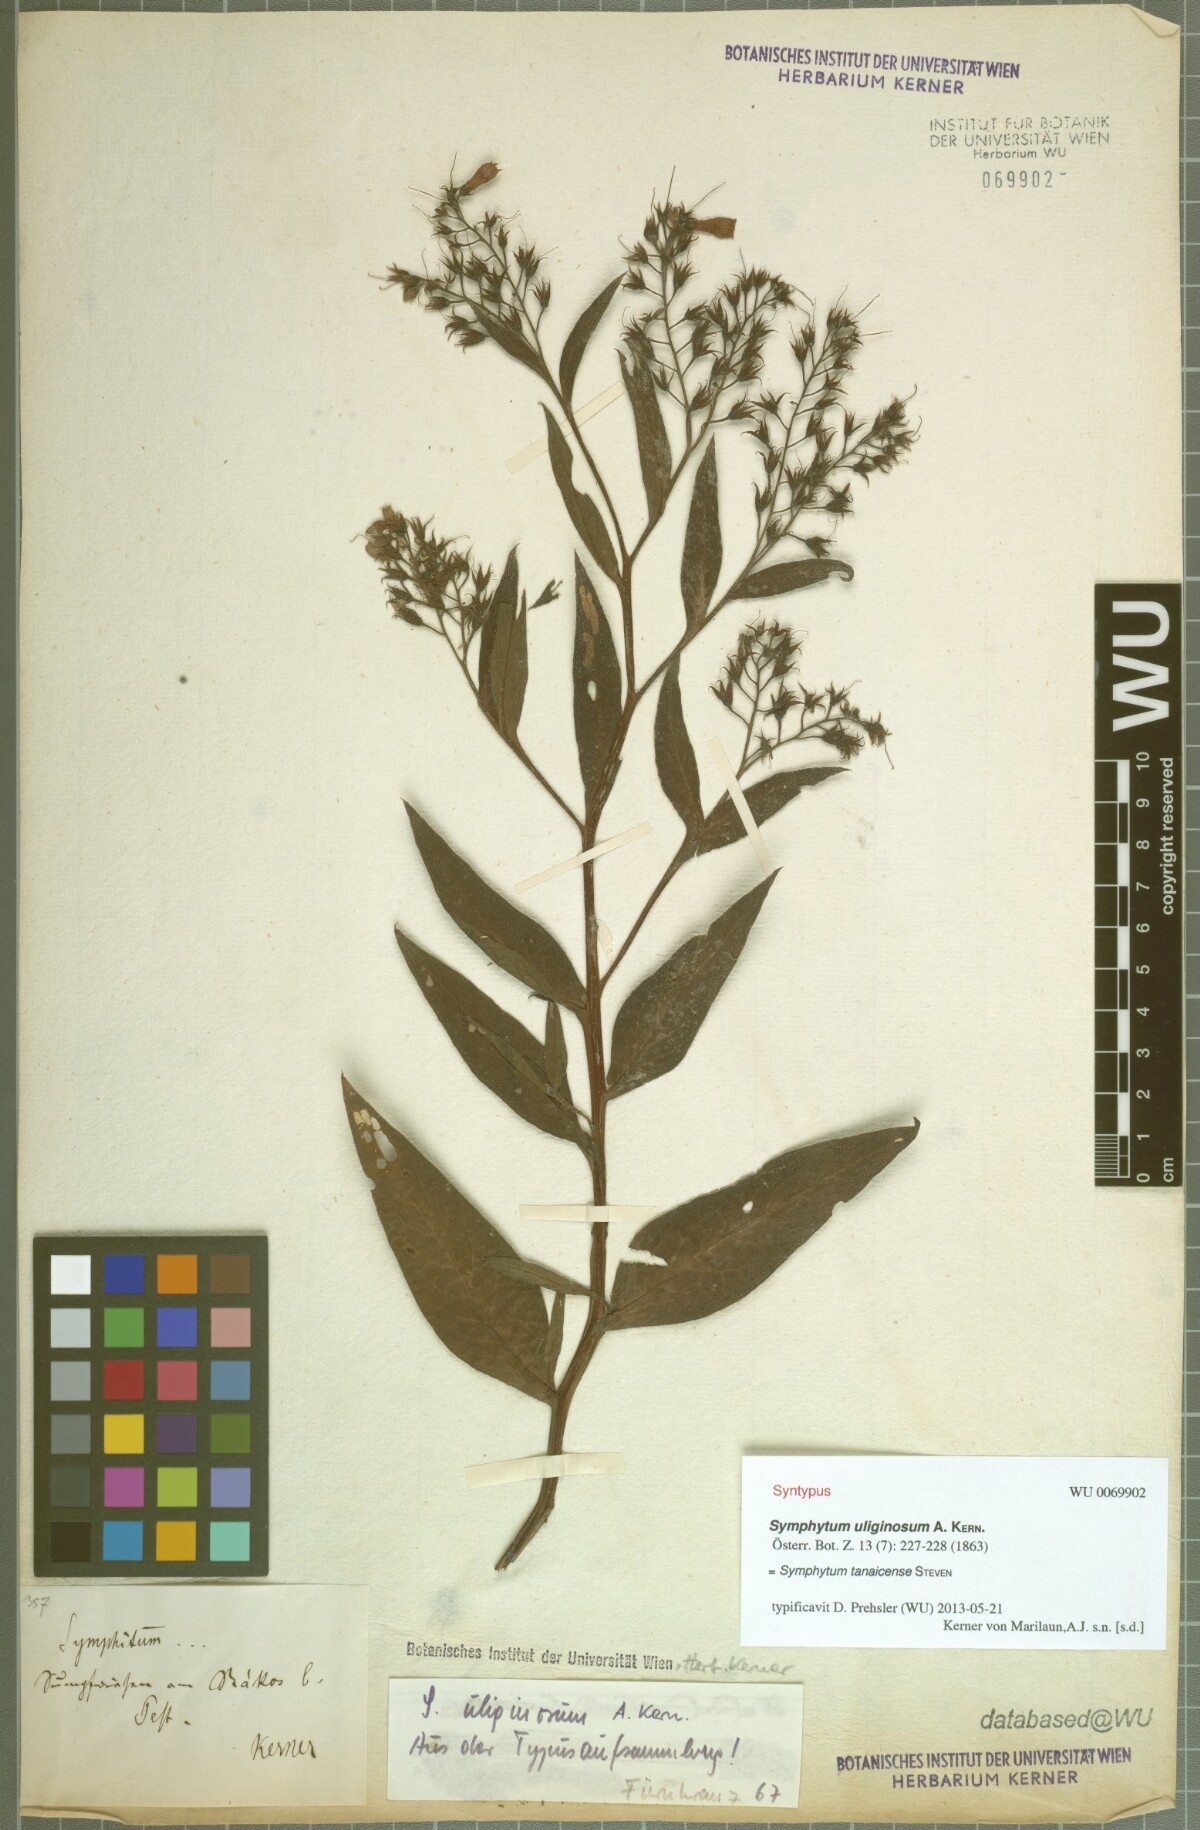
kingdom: Plantae
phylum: Tracheophyta
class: Magnoliopsida
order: Boraginales
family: Boraginaceae
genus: Symphytum
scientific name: Symphytum tanaicense
